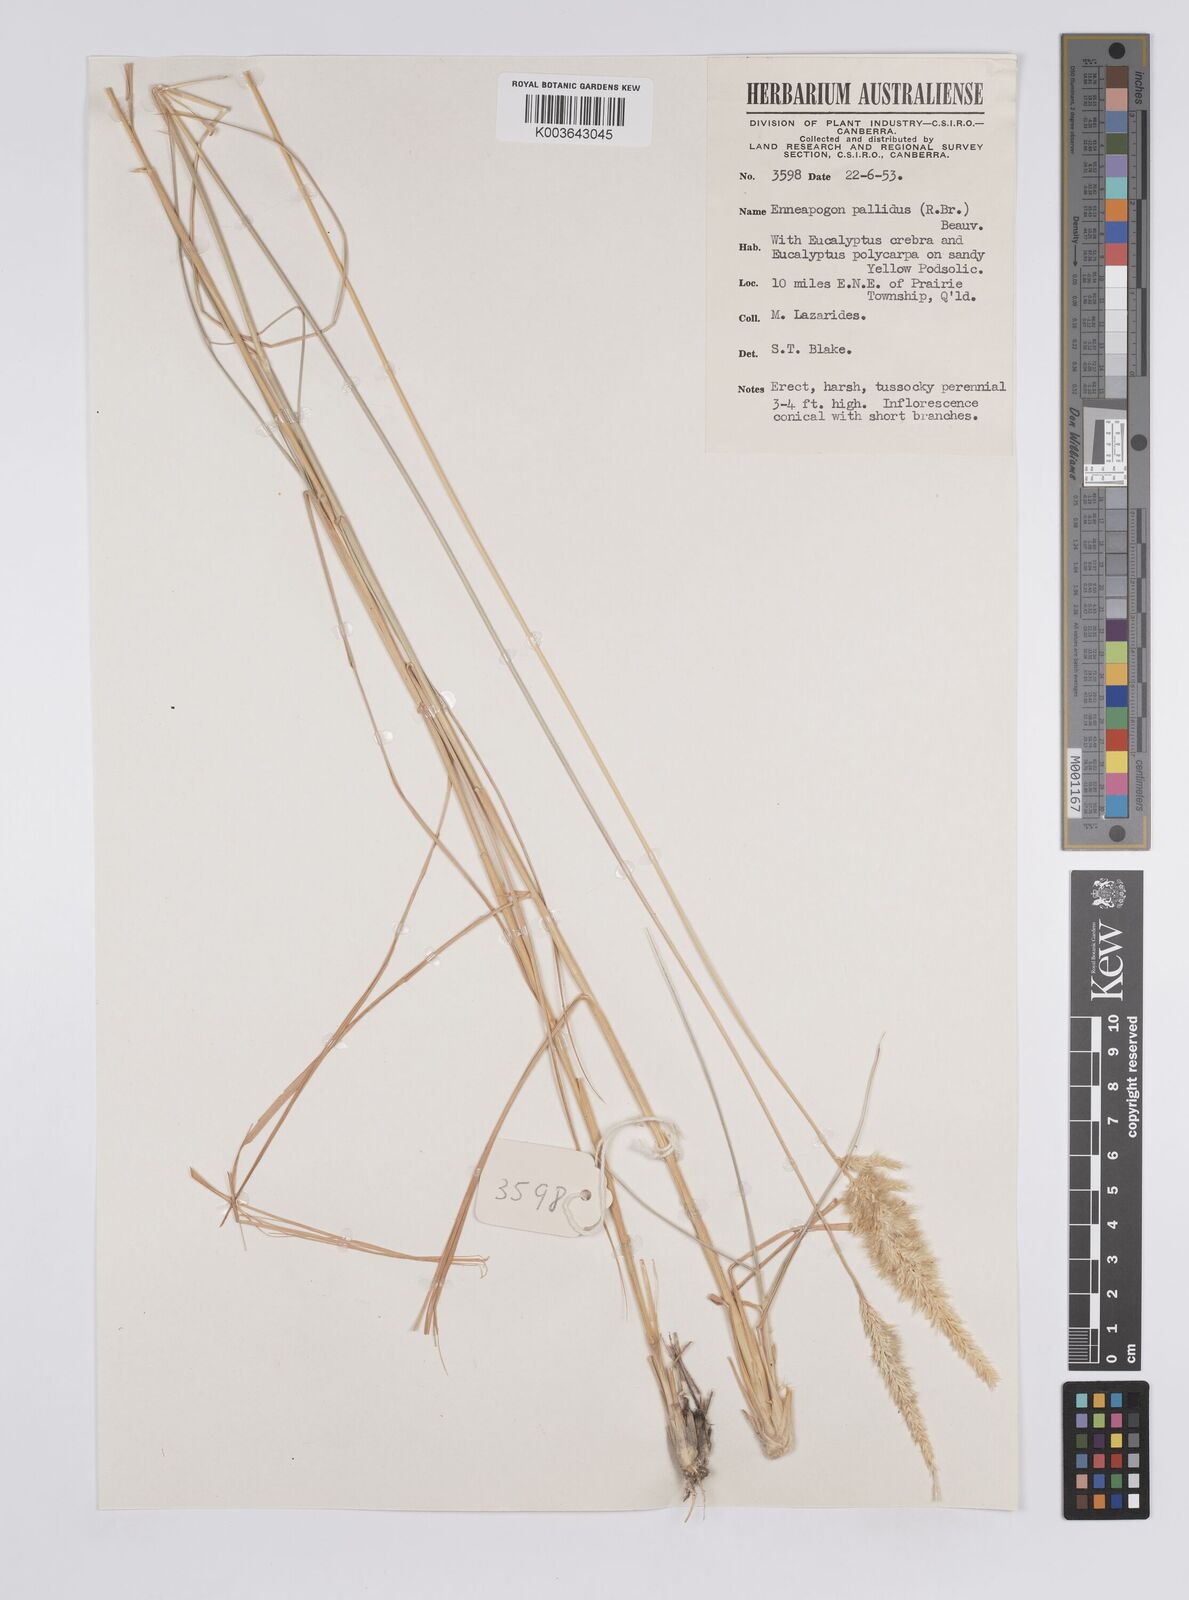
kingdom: Plantae
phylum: Tracheophyta
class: Liliopsida
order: Poales
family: Poaceae
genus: Enneapogon
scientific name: Enneapogon pallidus
